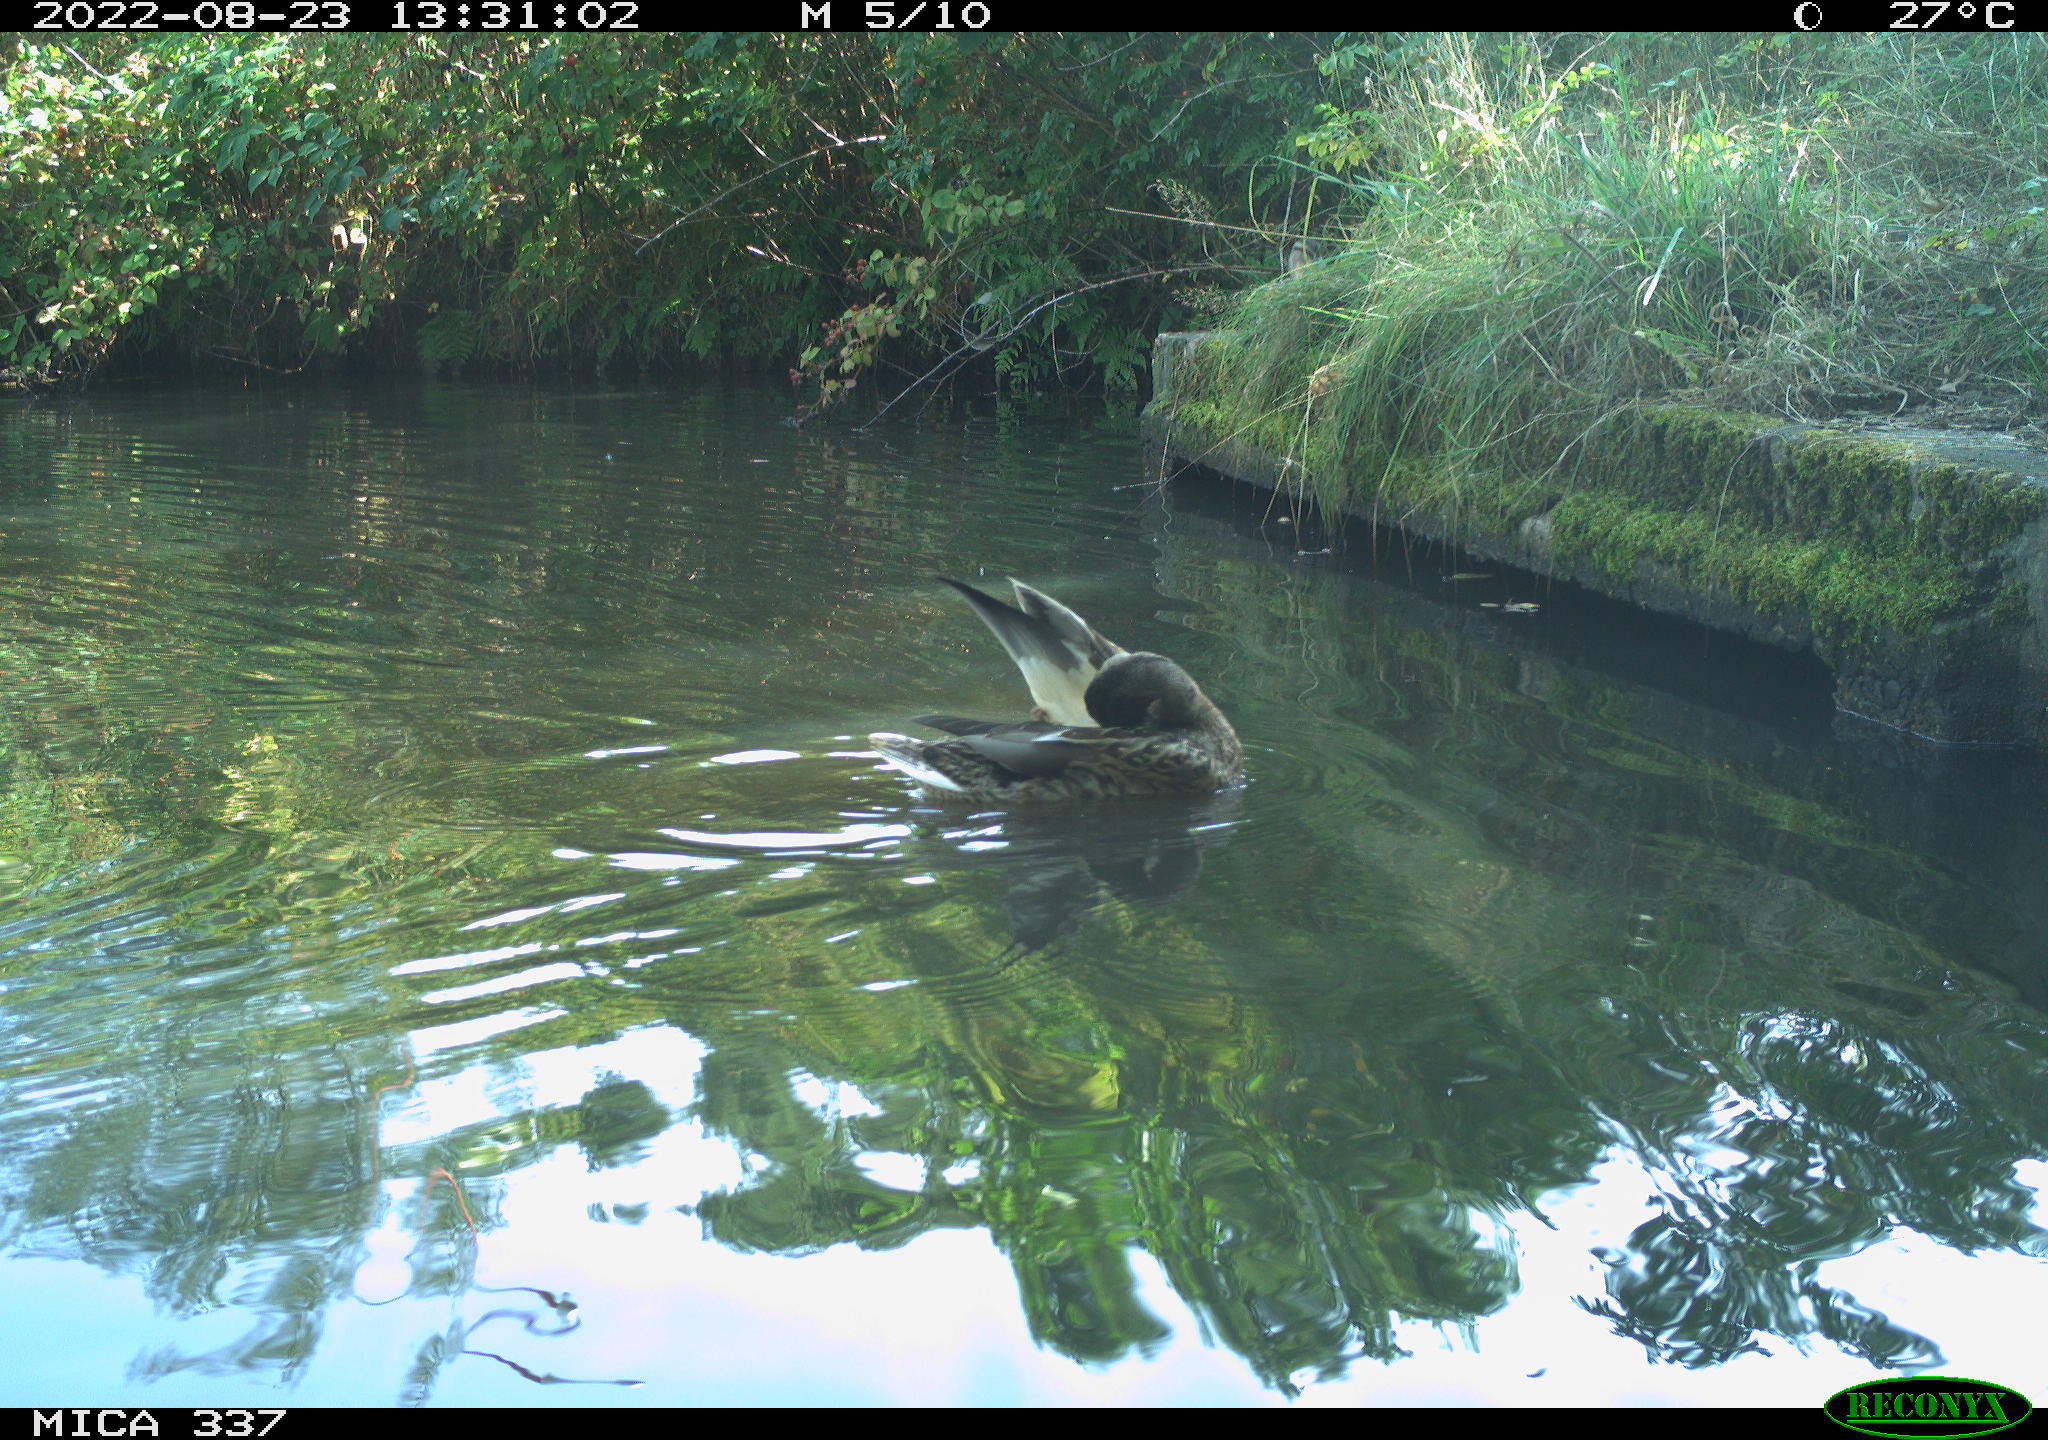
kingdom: Animalia
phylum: Chordata
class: Aves
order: Anseriformes
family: Anatidae
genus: Anas
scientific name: Anas platyrhynchos
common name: Mallard
